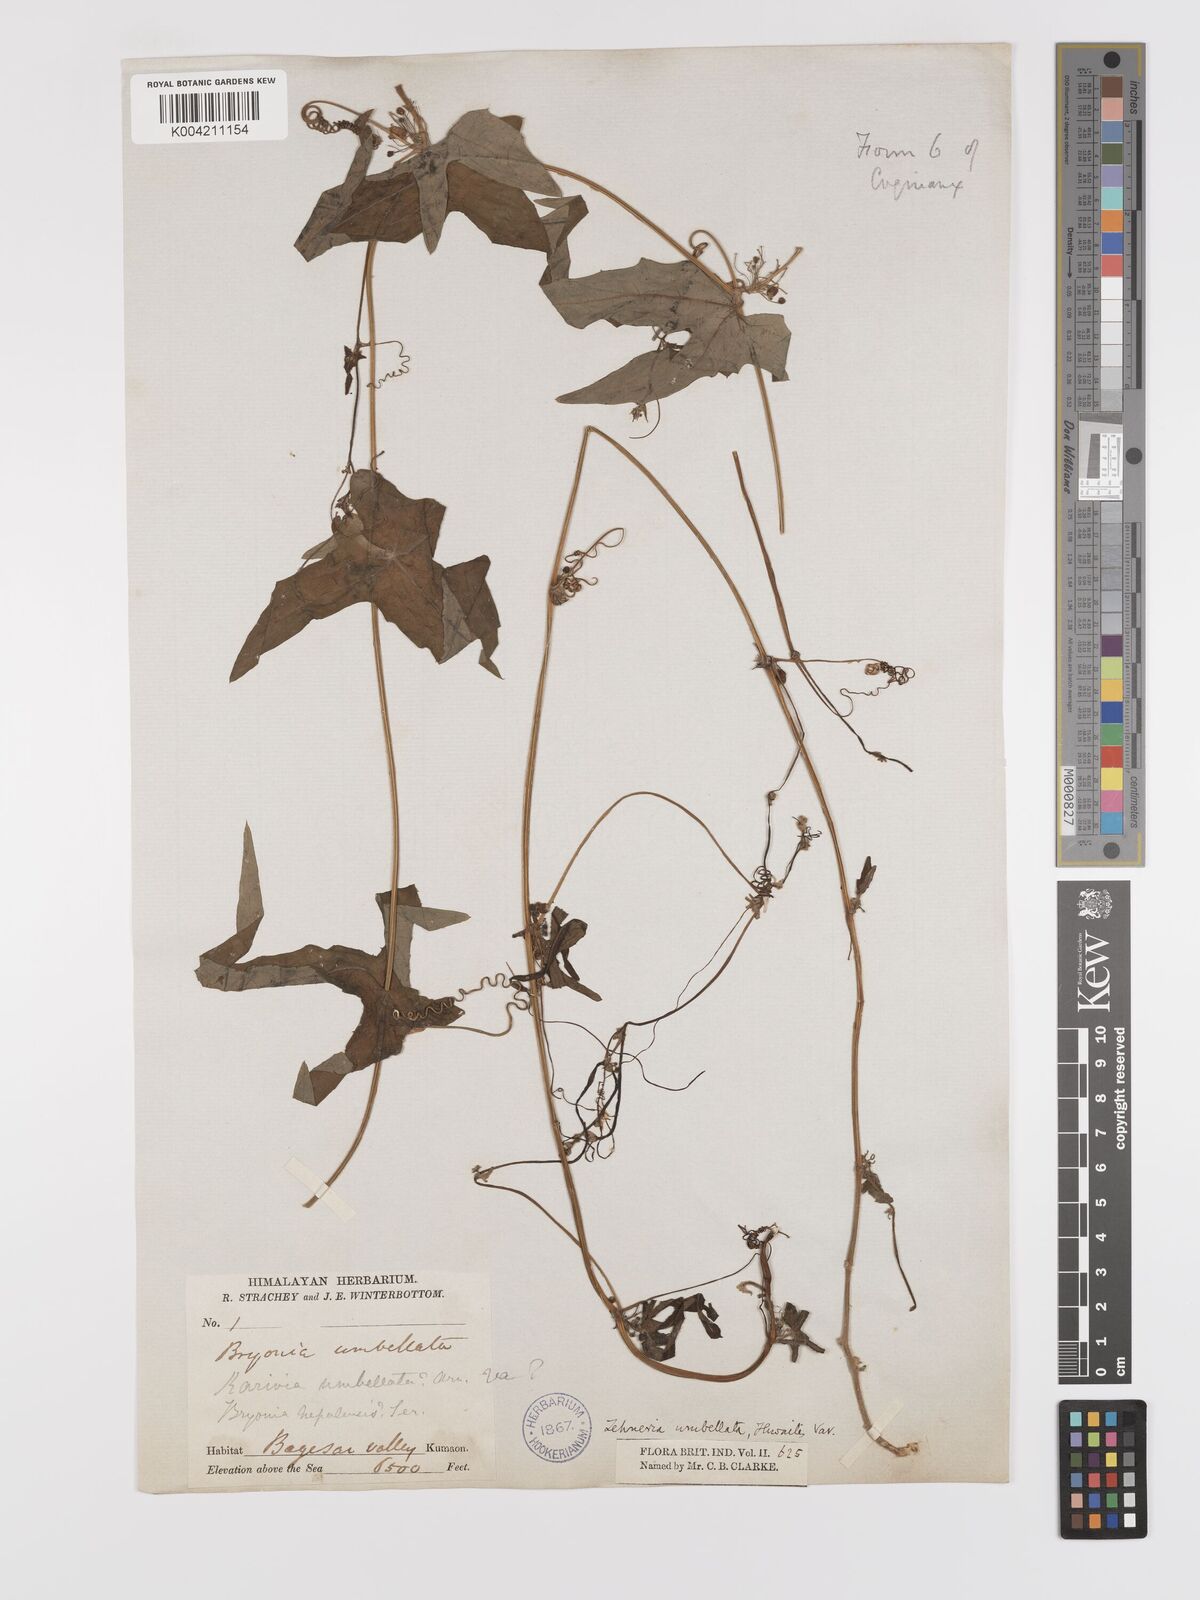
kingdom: Plantae
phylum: Tracheophyta
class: Magnoliopsida
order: Cucurbitales
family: Cucurbitaceae
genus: Solena
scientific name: Solena
